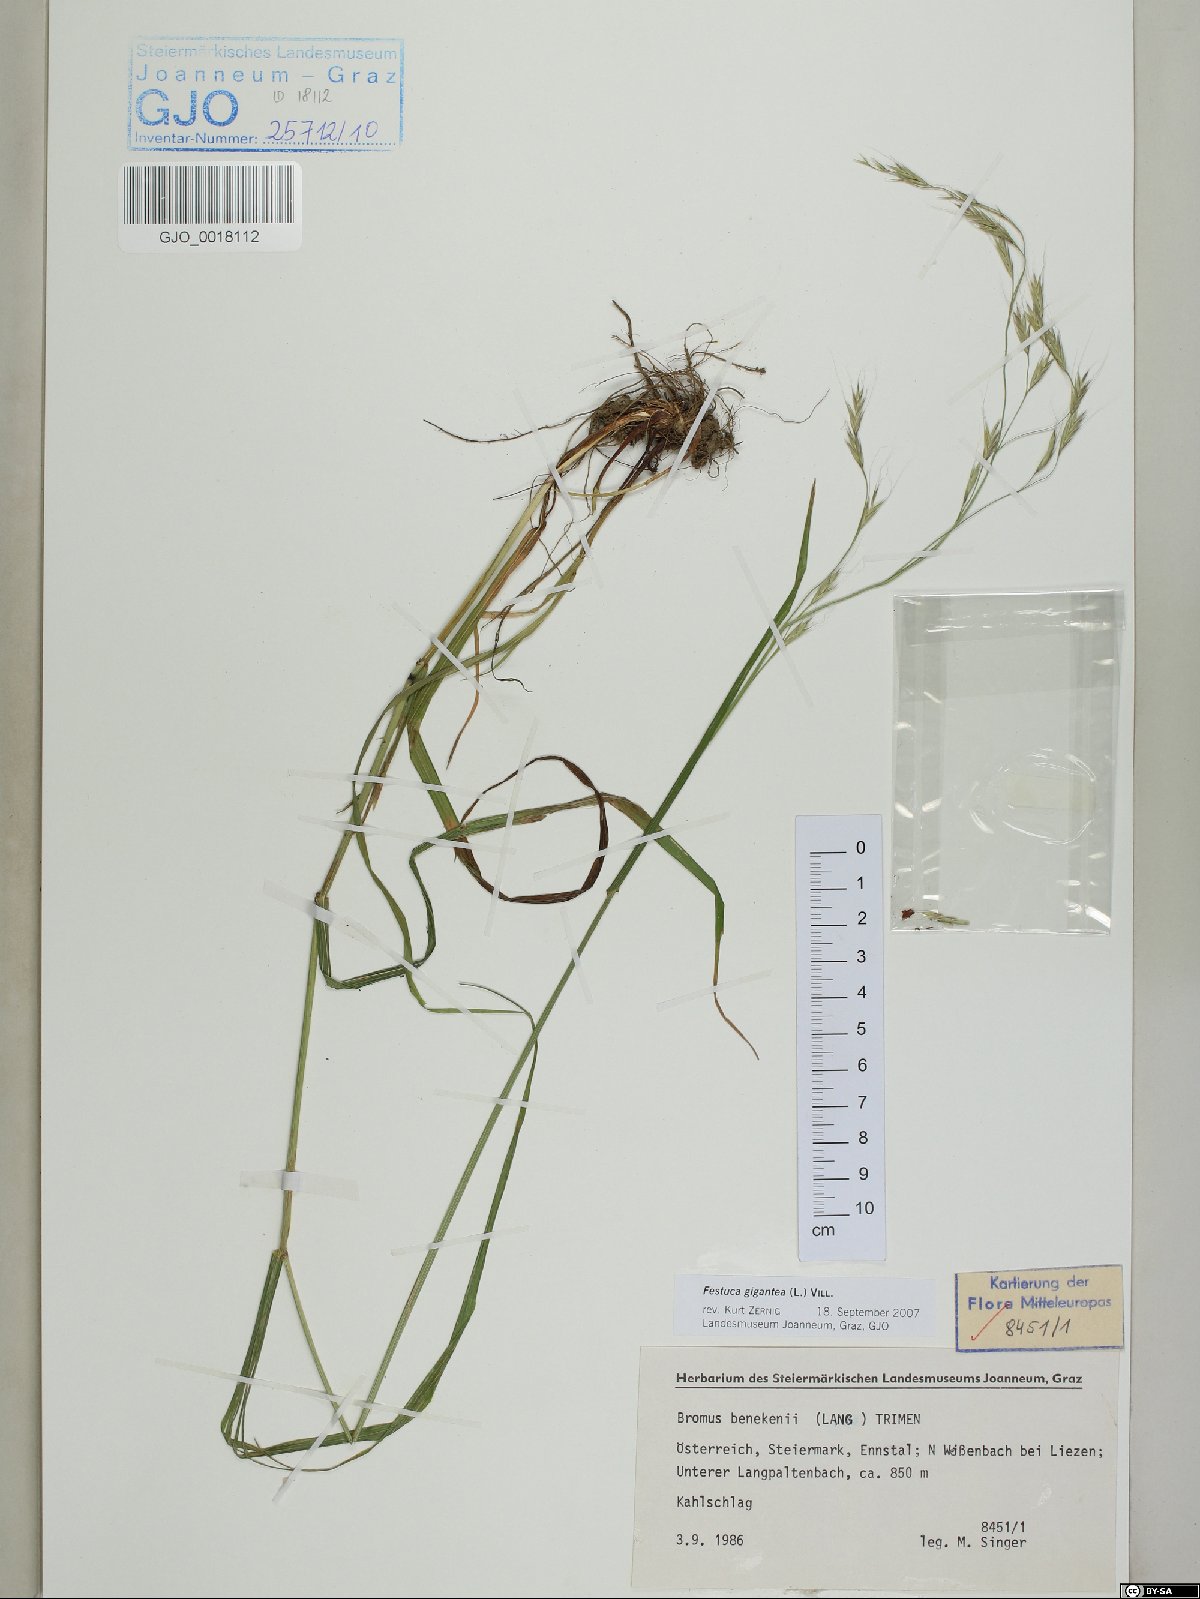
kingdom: Plantae
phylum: Tracheophyta
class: Liliopsida
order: Poales
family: Poaceae
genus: Lolium
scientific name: Lolium giganteum
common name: Giant fescue
